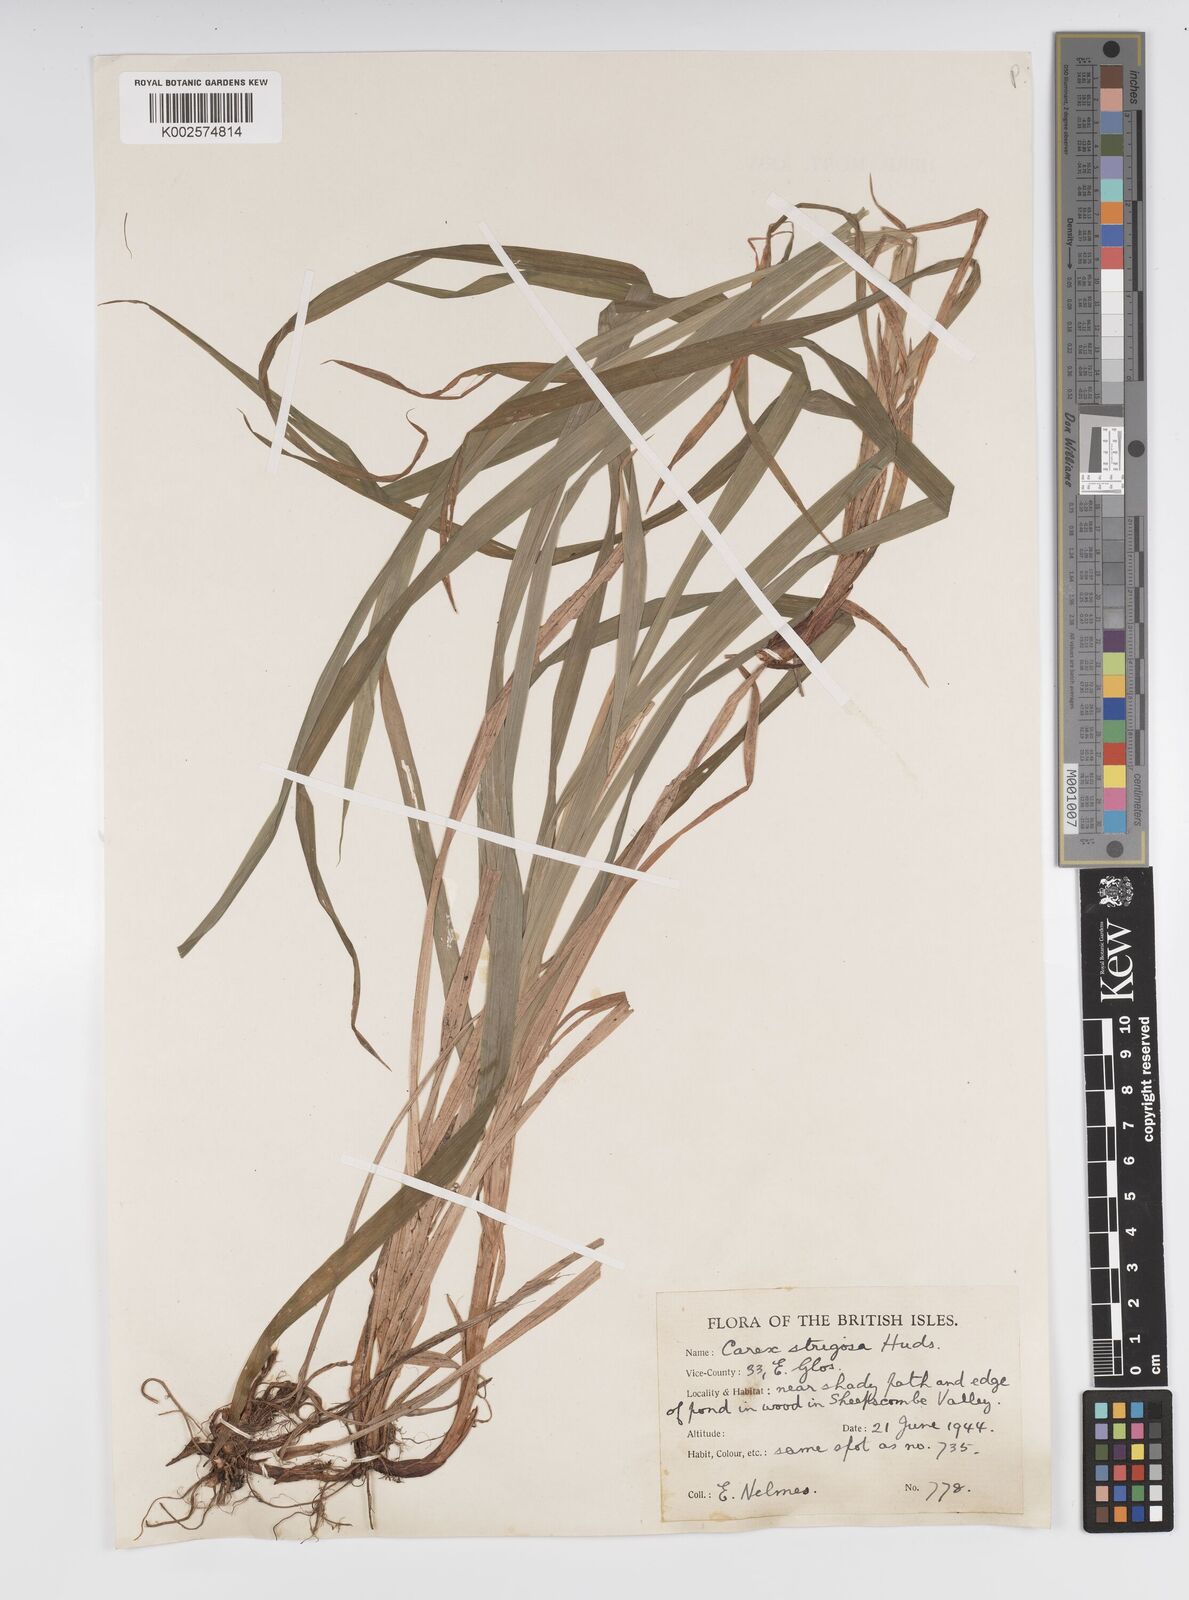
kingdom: Plantae
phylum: Tracheophyta
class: Liliopsida
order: Poales
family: Cyperaceae
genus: Carex
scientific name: Carex strigosa
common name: Thin-spiked wood-sedge
